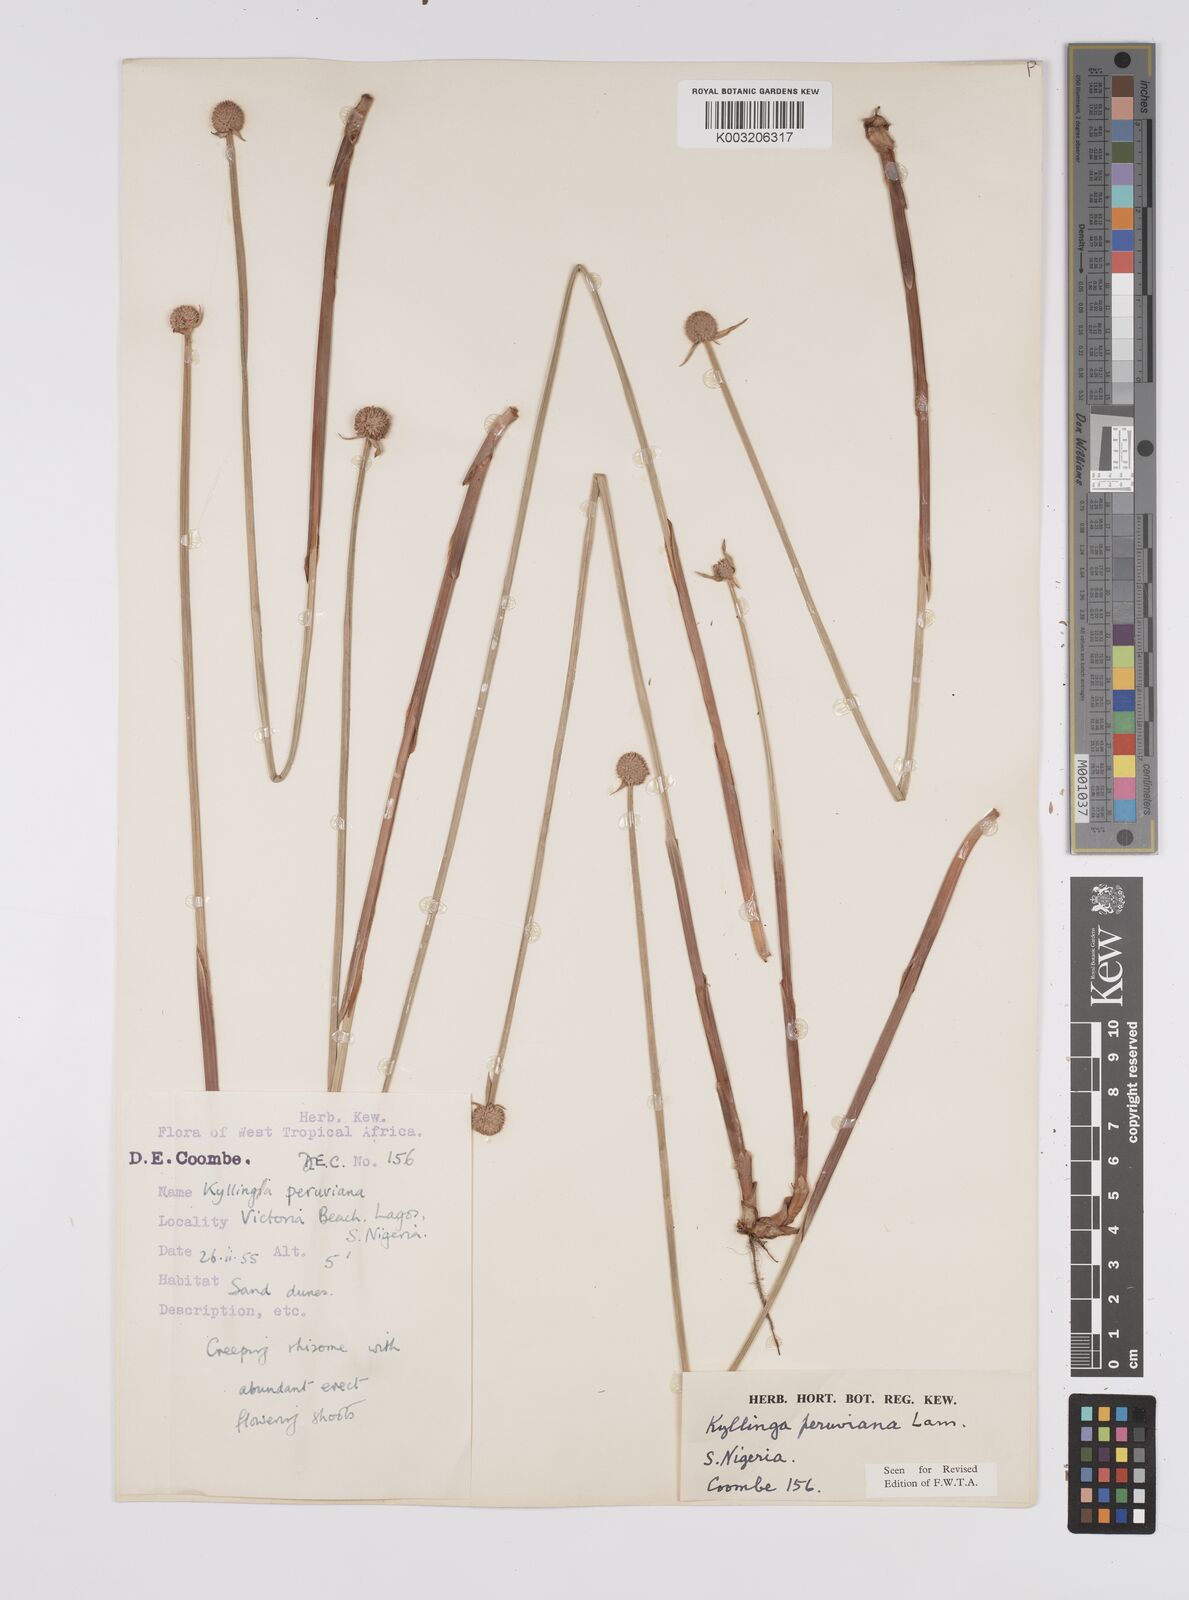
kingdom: Plantae
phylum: Tracheophyta
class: Liliopsida
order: Poales
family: Cyperaceae
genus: Cyperus
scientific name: Cyperus
